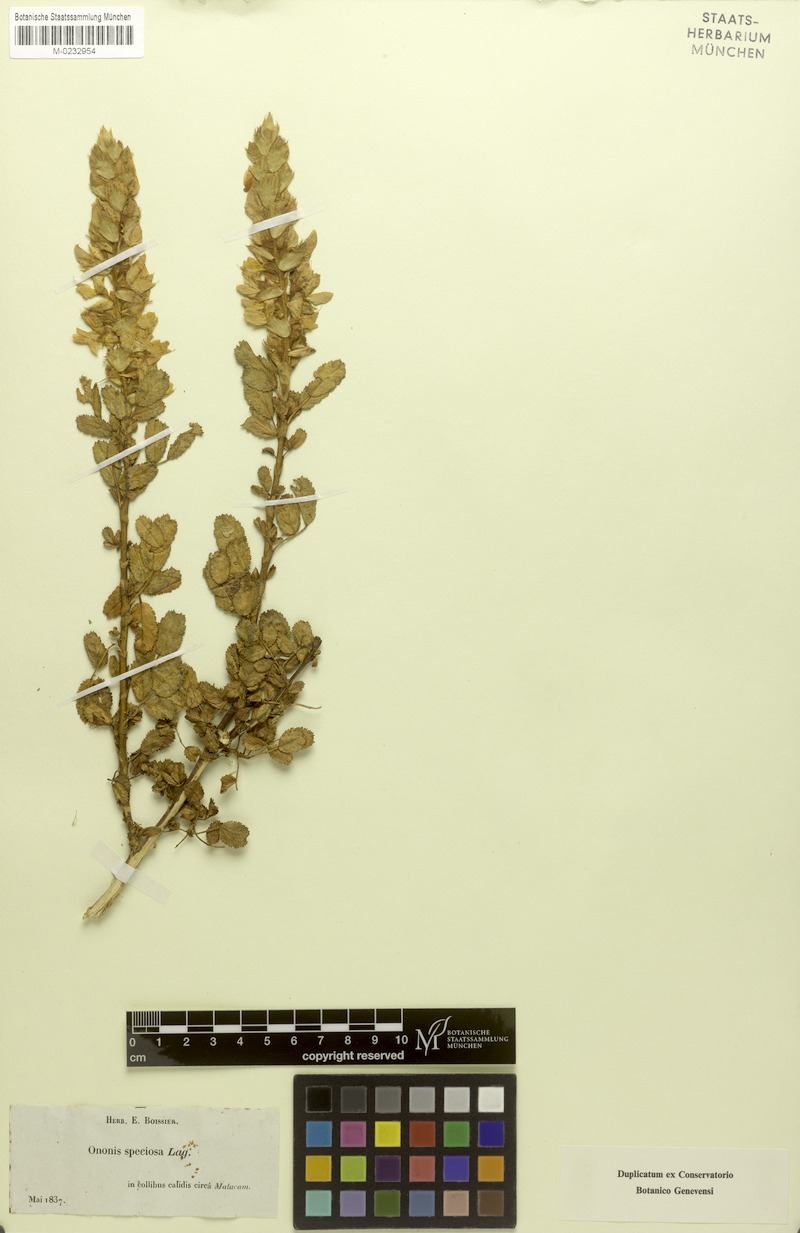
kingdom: Plantae
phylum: Tracheophyta
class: Magnoliopsida
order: Fabales
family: Fabaceae
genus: Ononis
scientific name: Ononis speciosa
